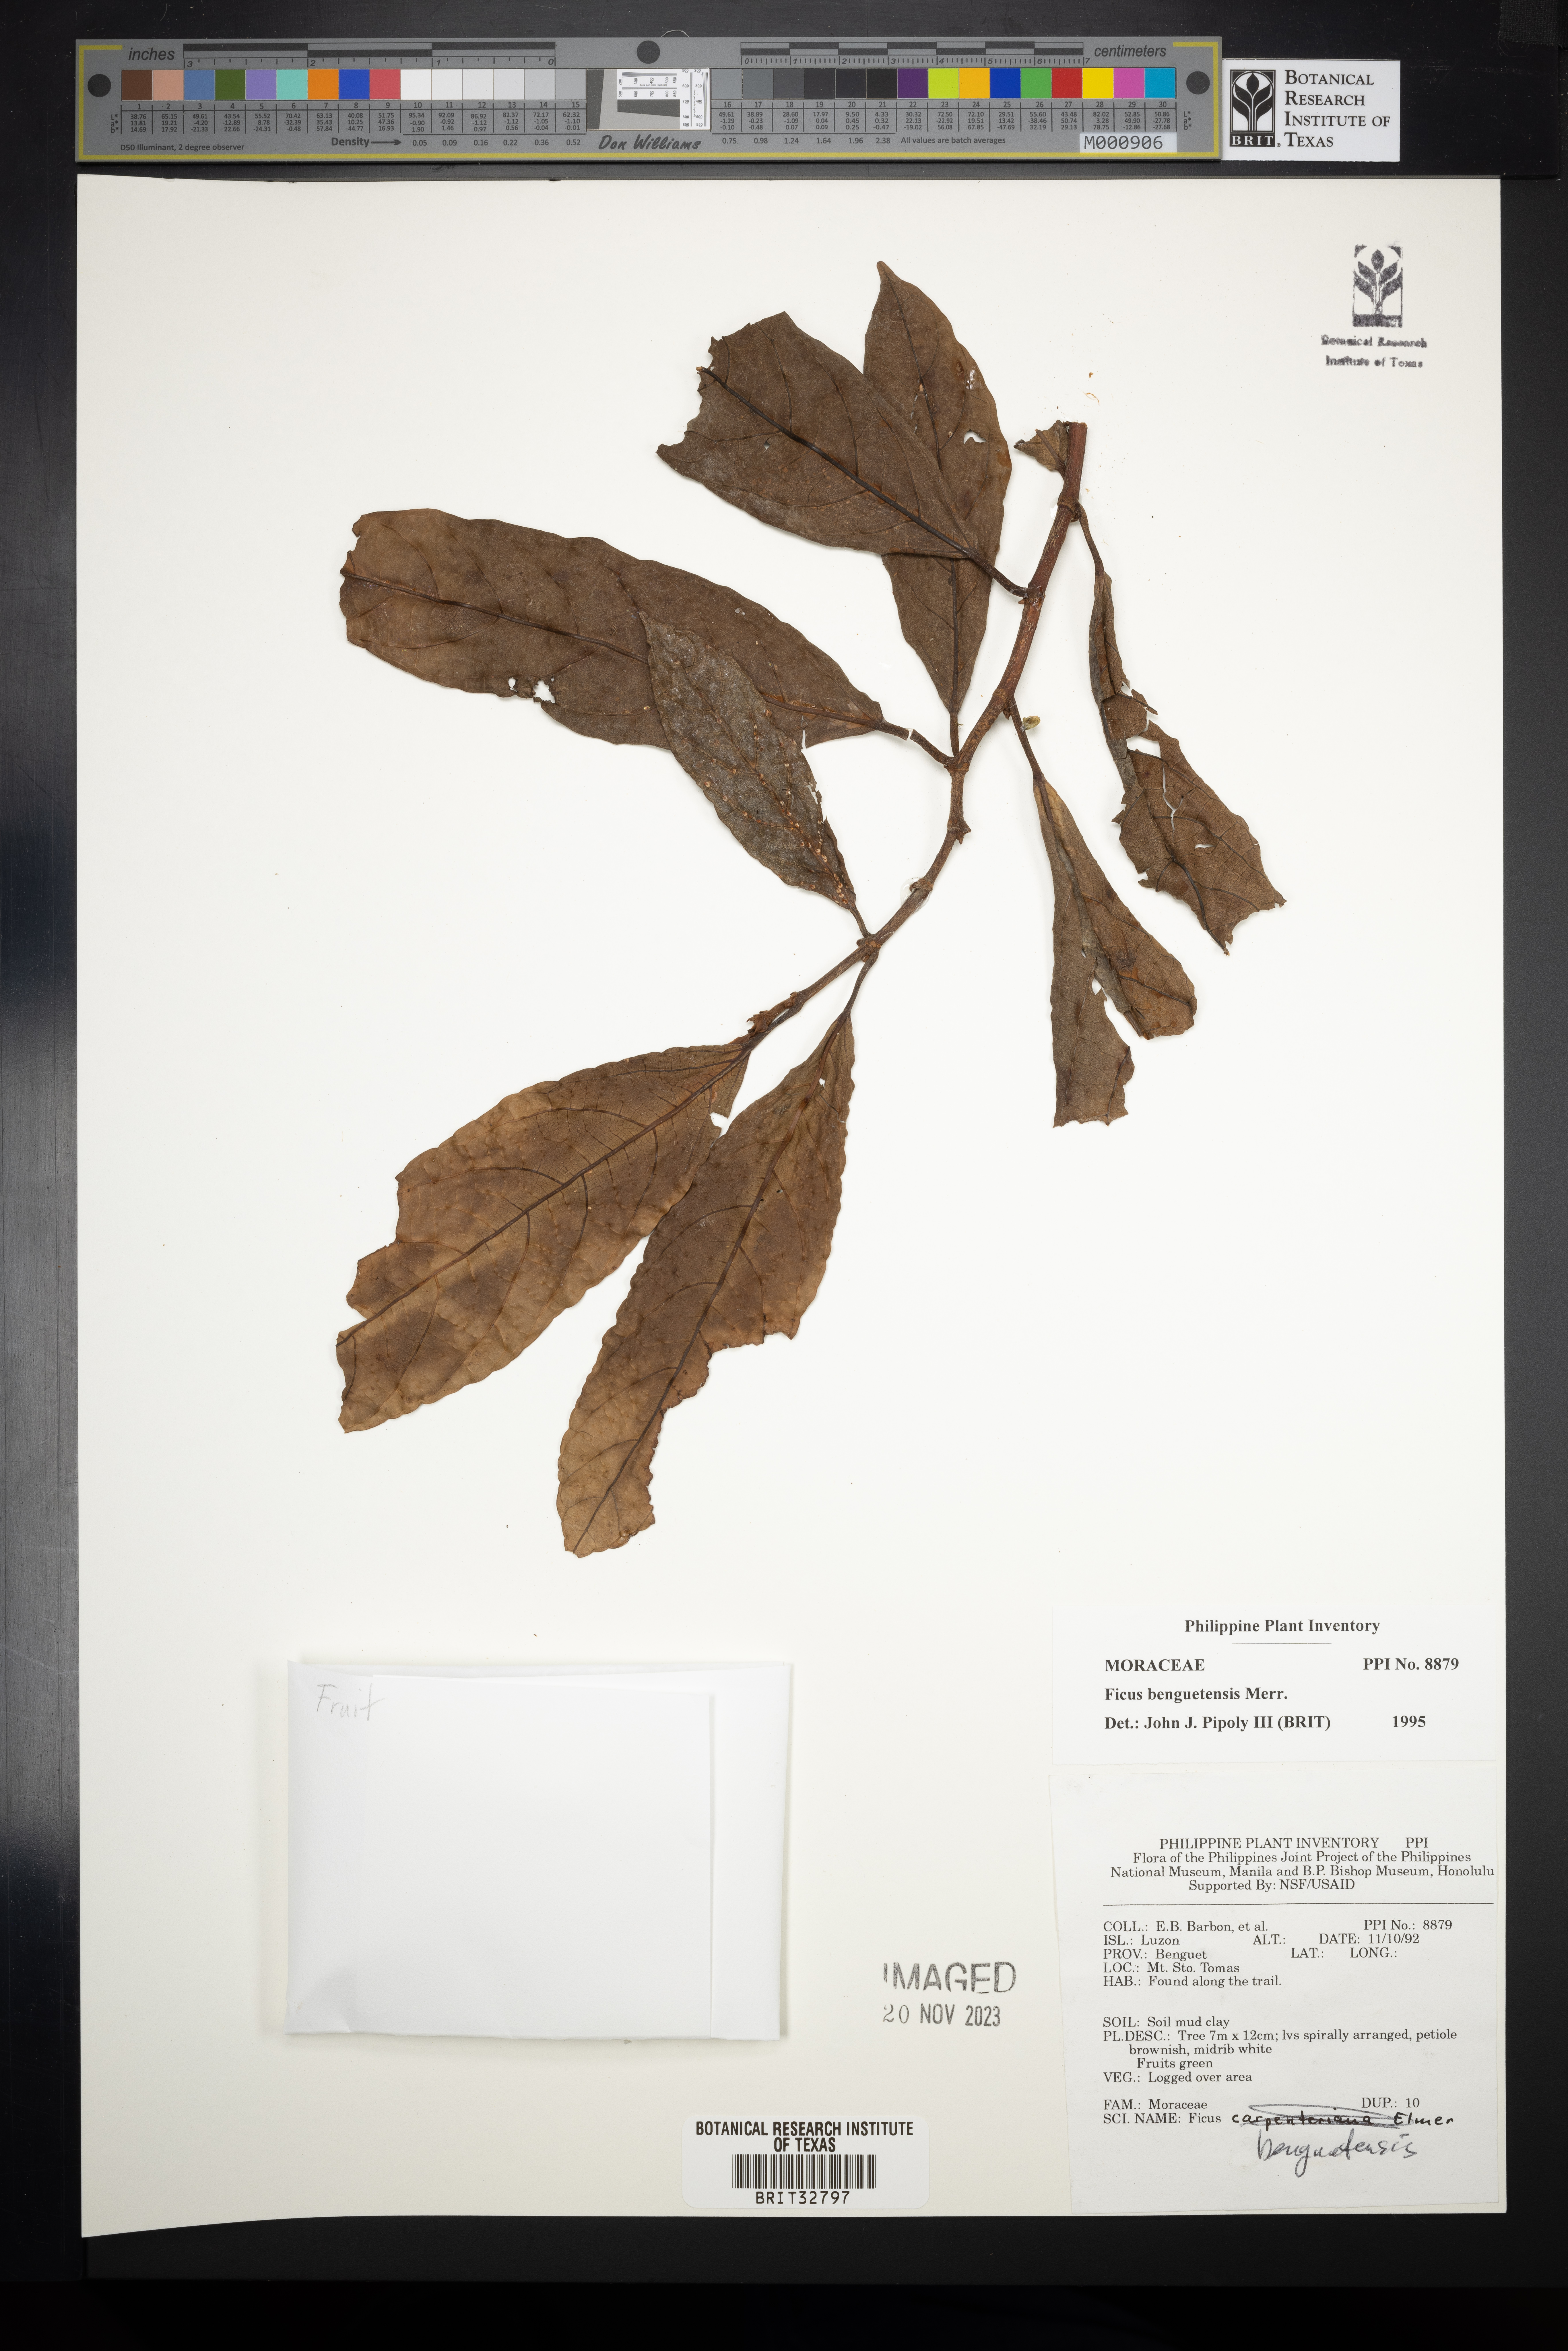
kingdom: Plantae
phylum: Tracheophyta
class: Magnoliopsida
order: Rosales
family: Moraceae
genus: Ficus
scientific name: Ficus benguetensis
